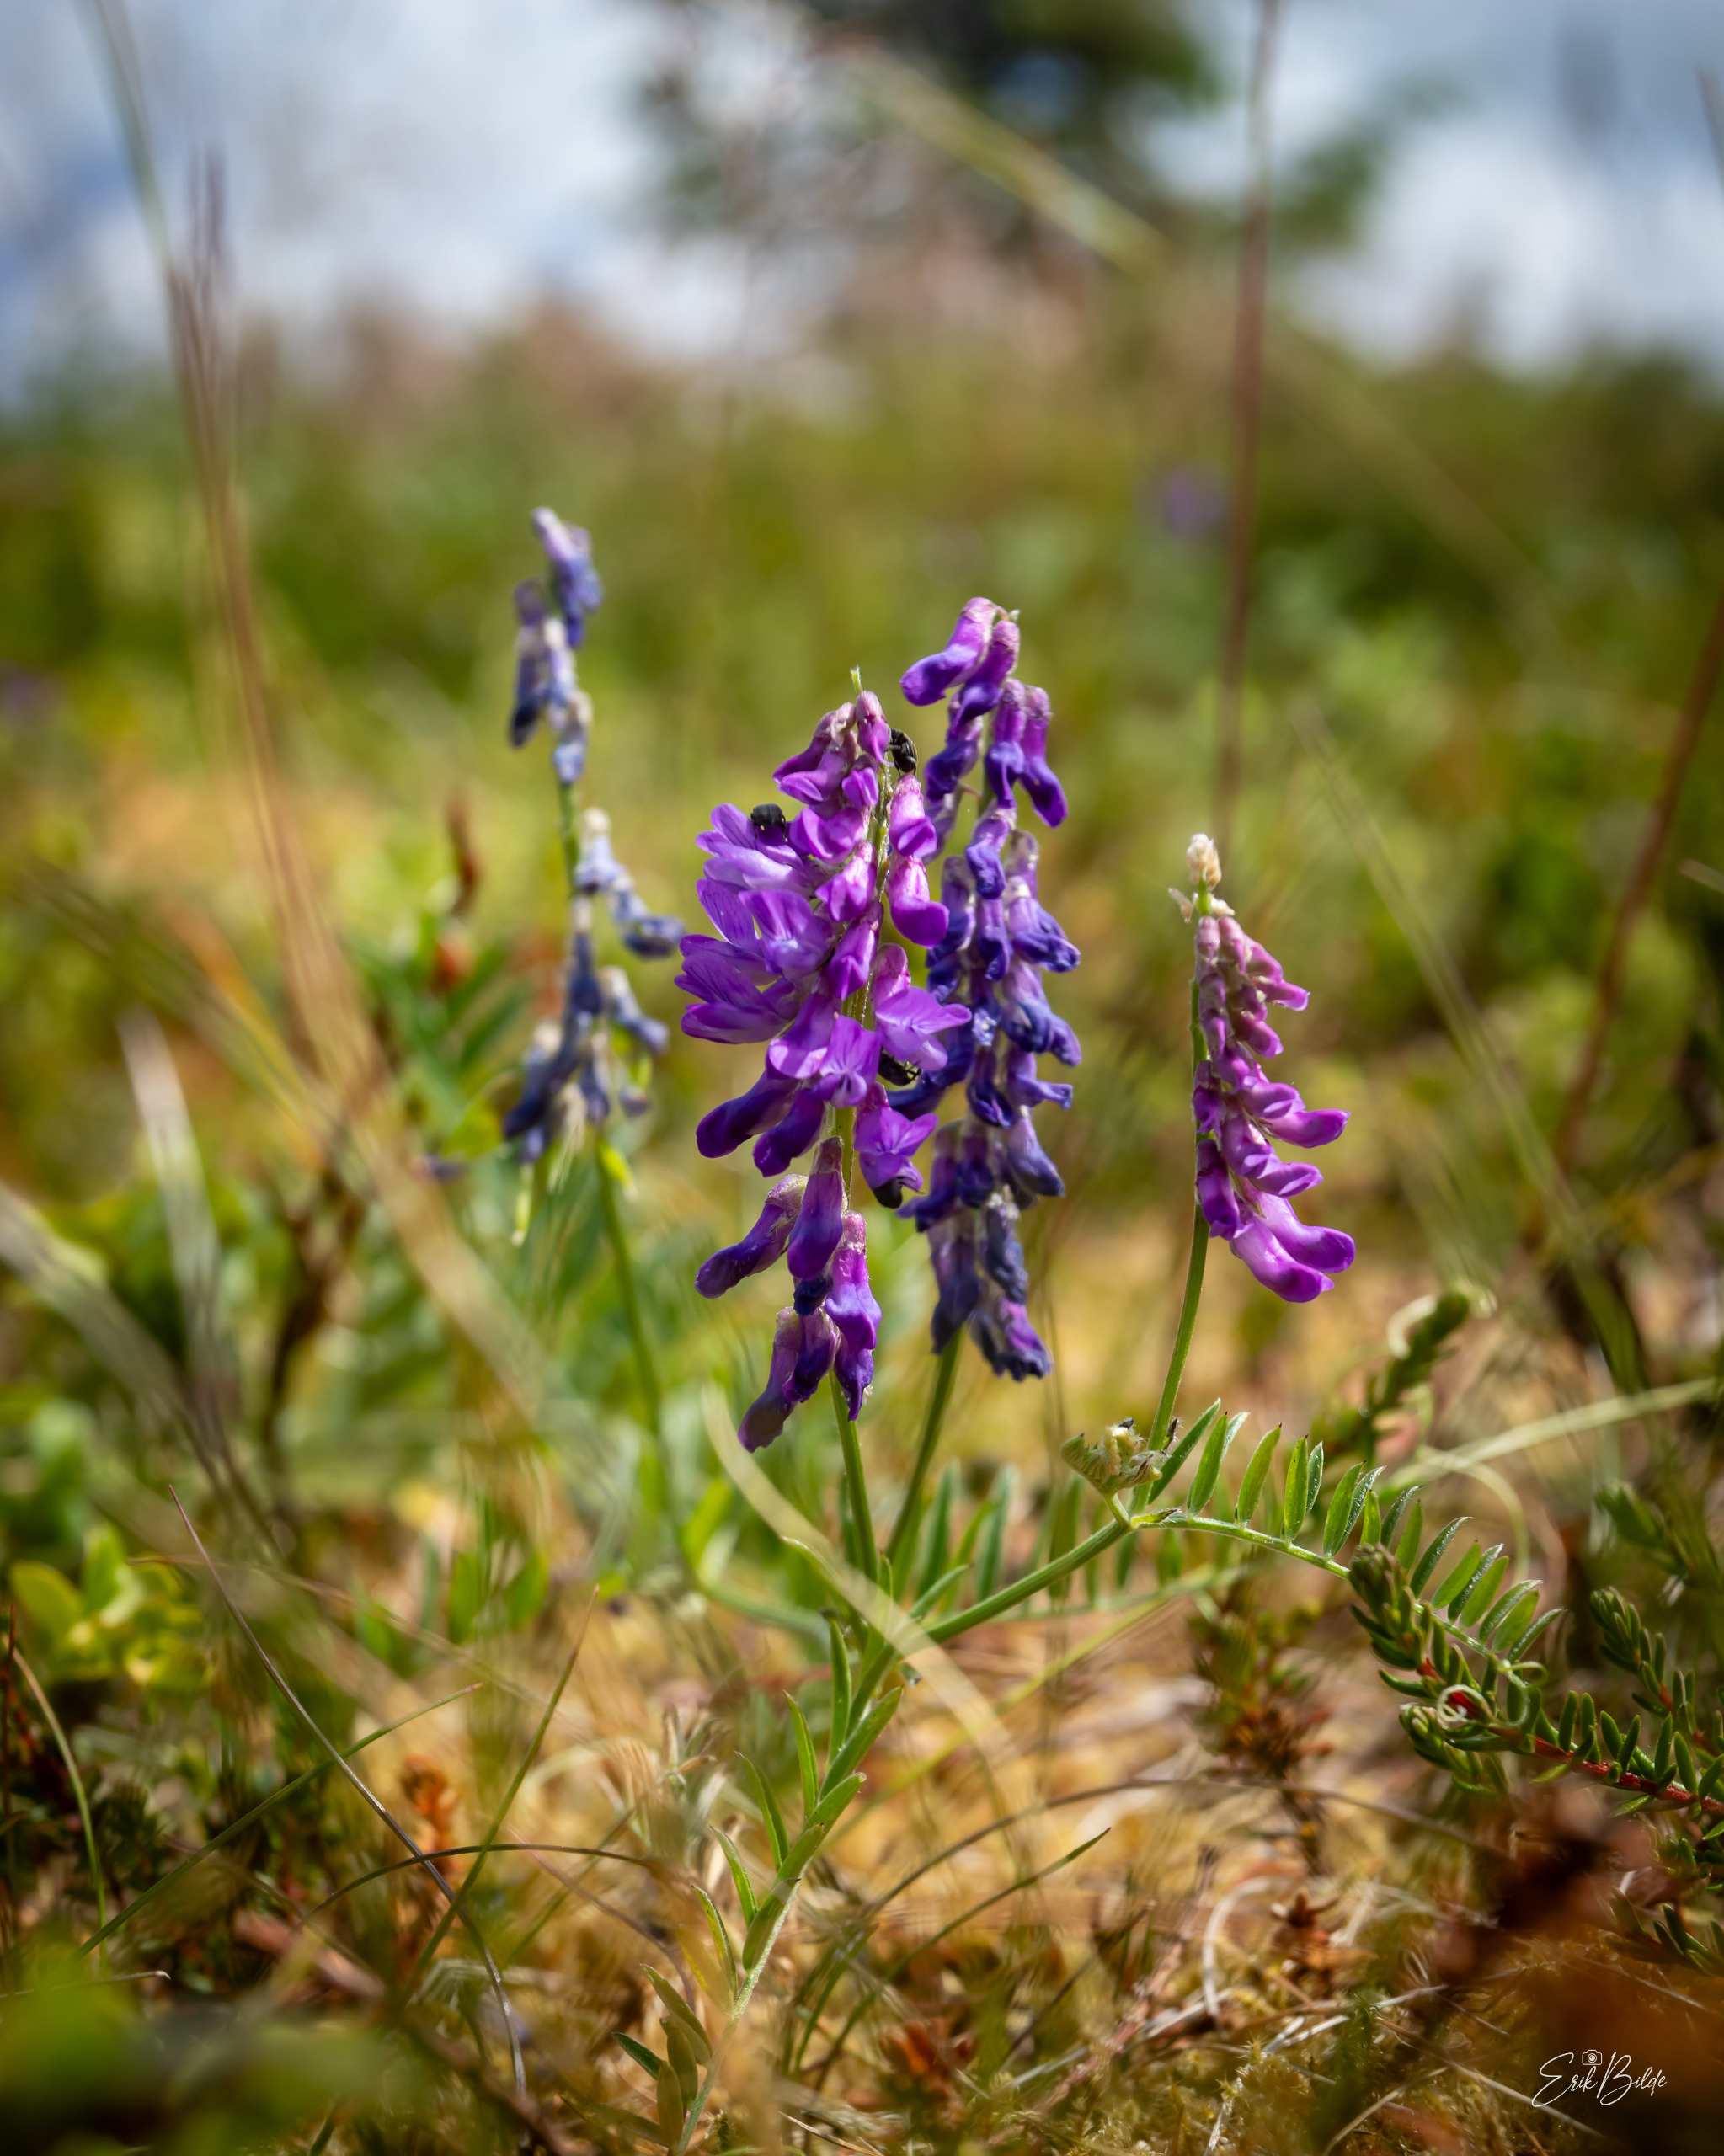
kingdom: Plantae
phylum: Tracheophyta
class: Magnoliopsida
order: Fabales
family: Fabaceae
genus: Vicia
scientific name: Vicia cracca
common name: Muse-vikke
